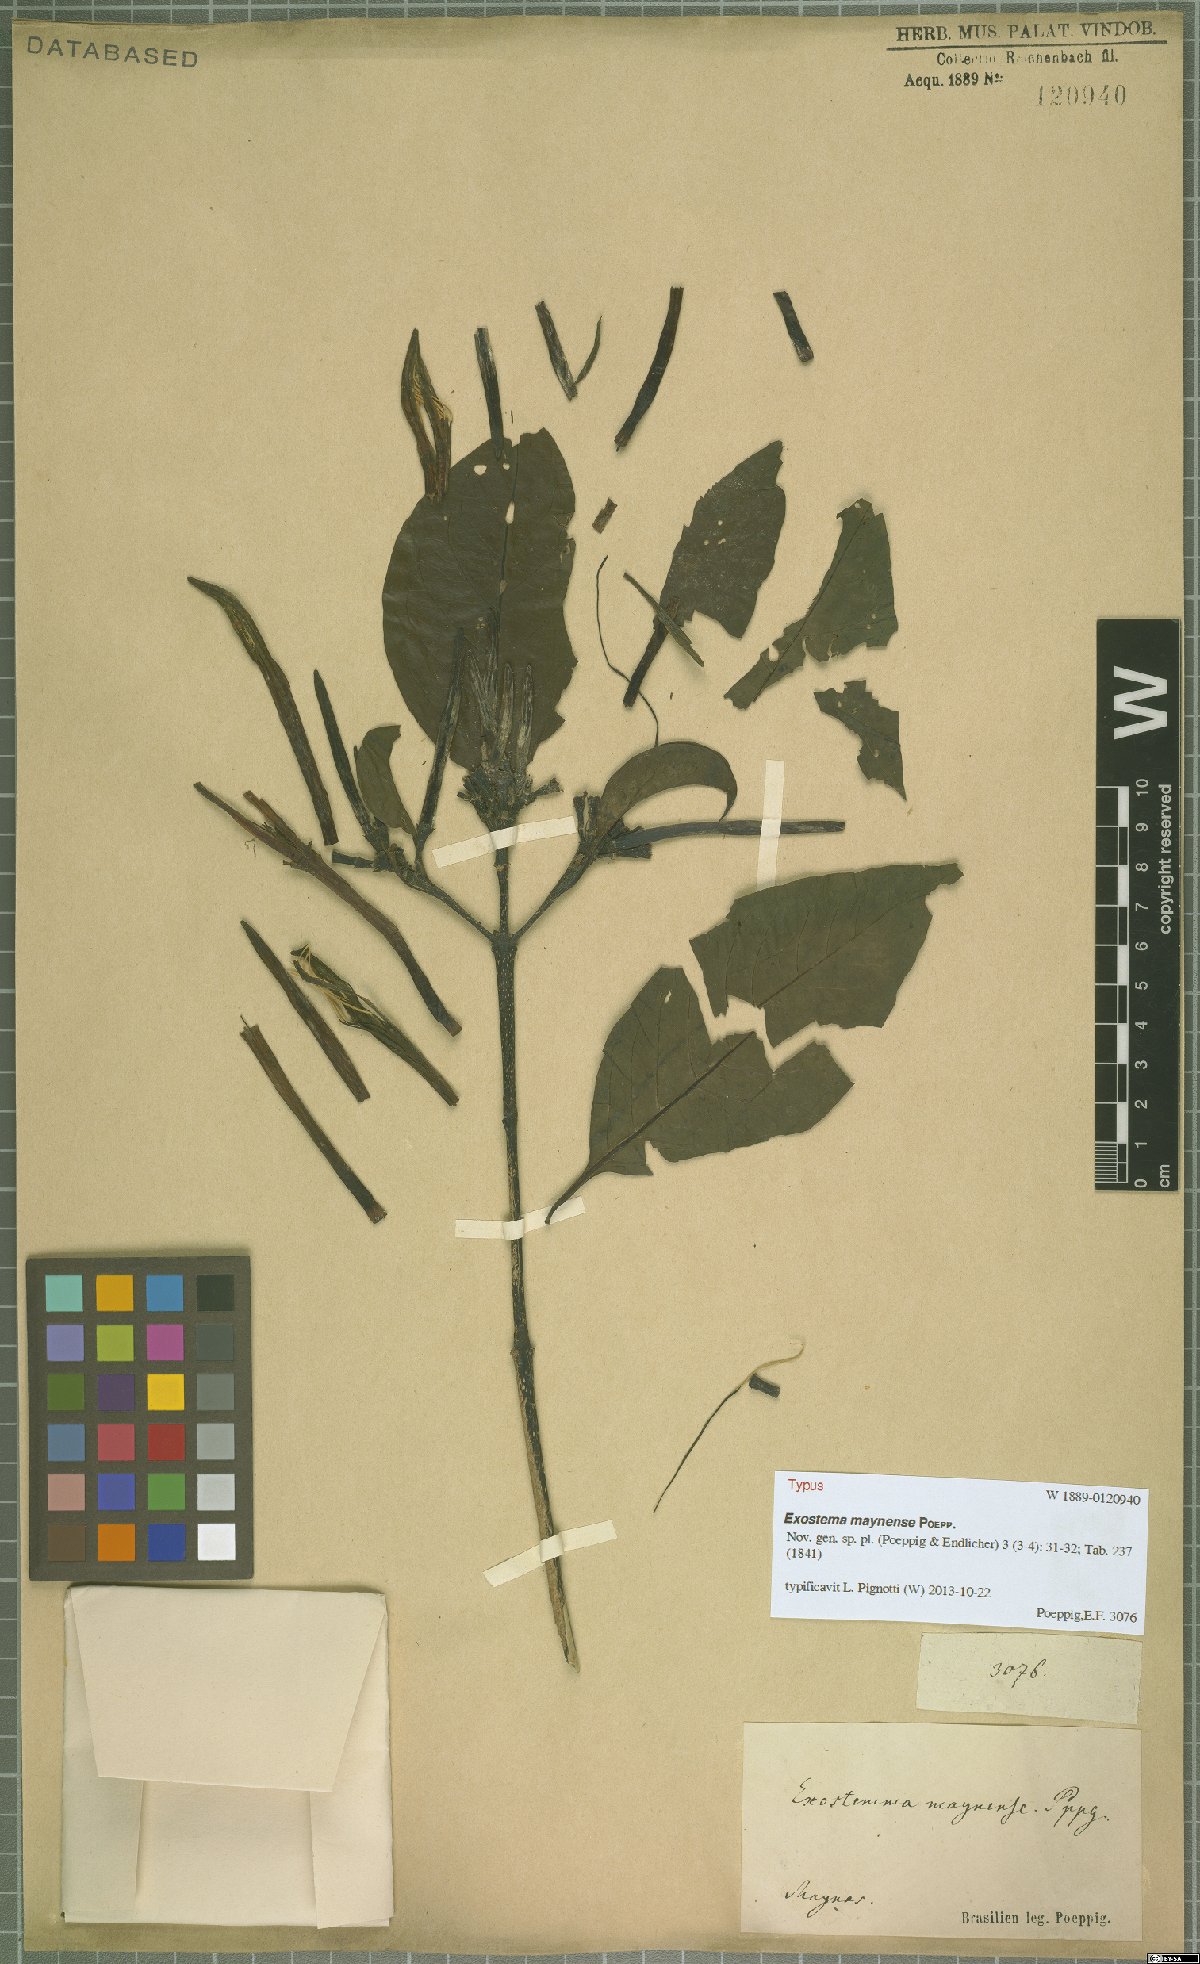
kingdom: Plantae
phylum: Tracheophyta
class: Magnoliopsida
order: Gentianales
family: Rubiaceae
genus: Adolphoduckea
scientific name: Adolphoduckea maynensis
